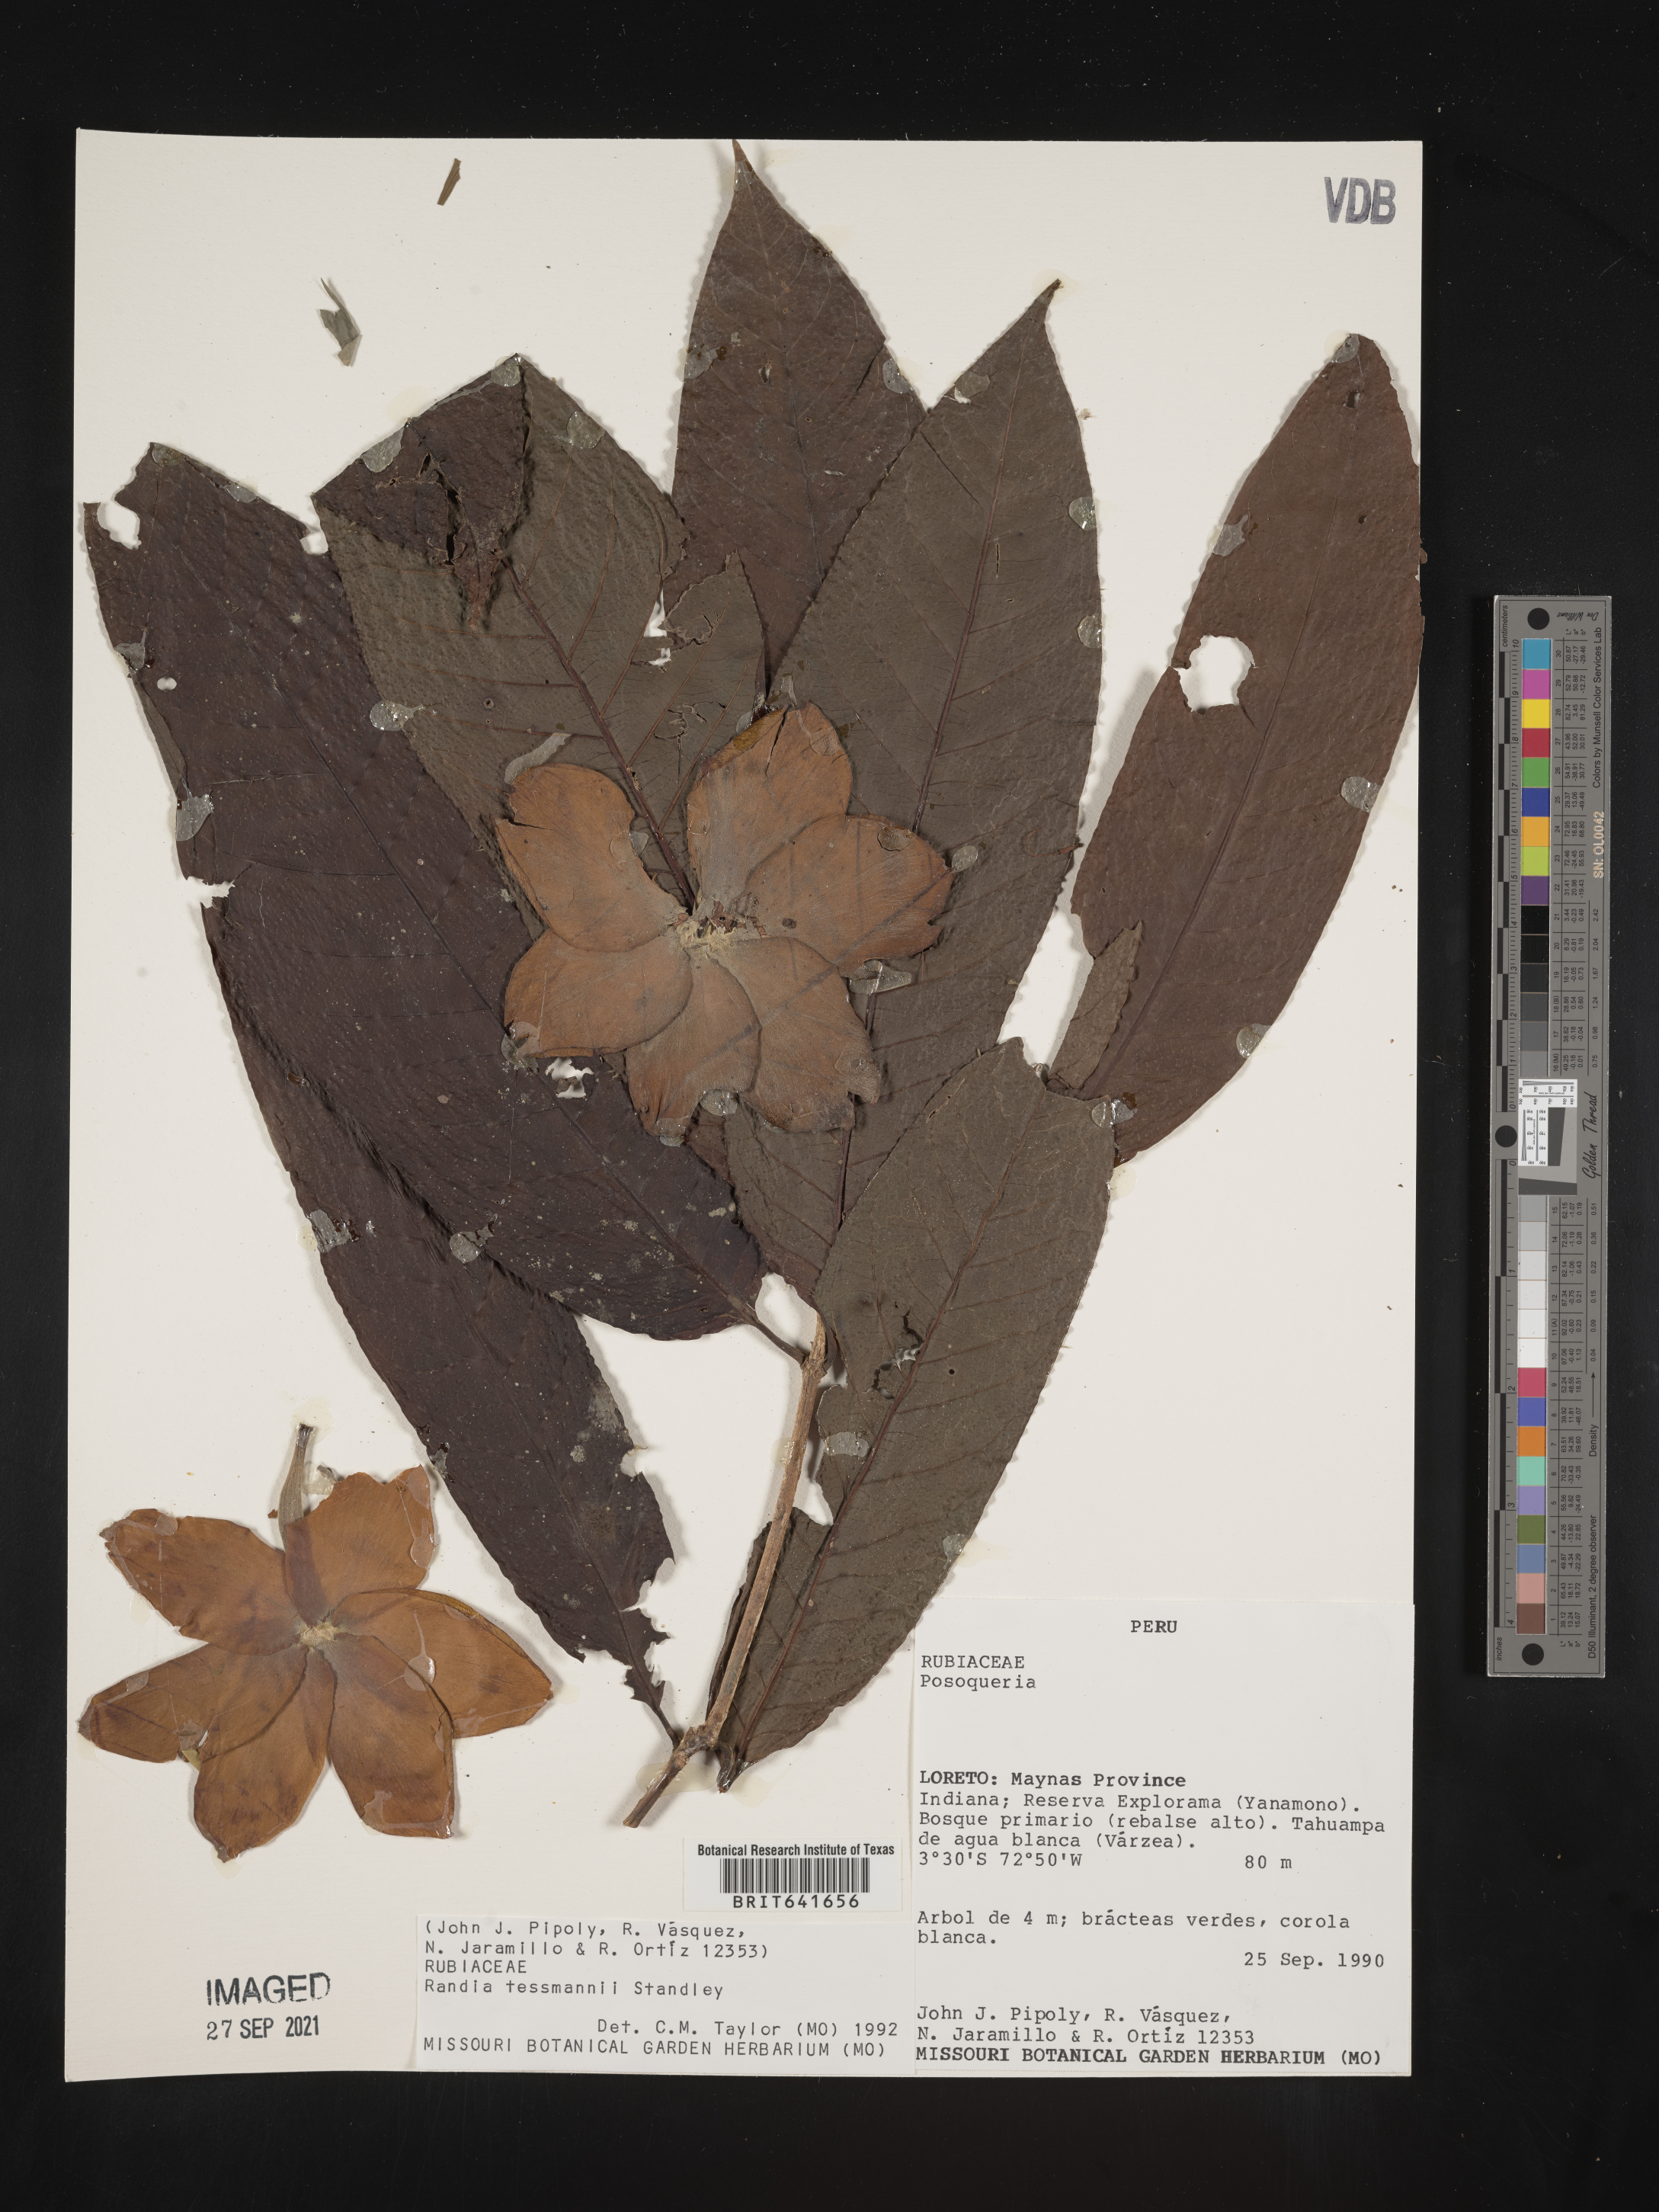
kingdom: Plantae
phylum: Tracheophyta
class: Magnoliopsida
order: Gentianales
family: Rubiaceae
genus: Randia
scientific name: Randia
